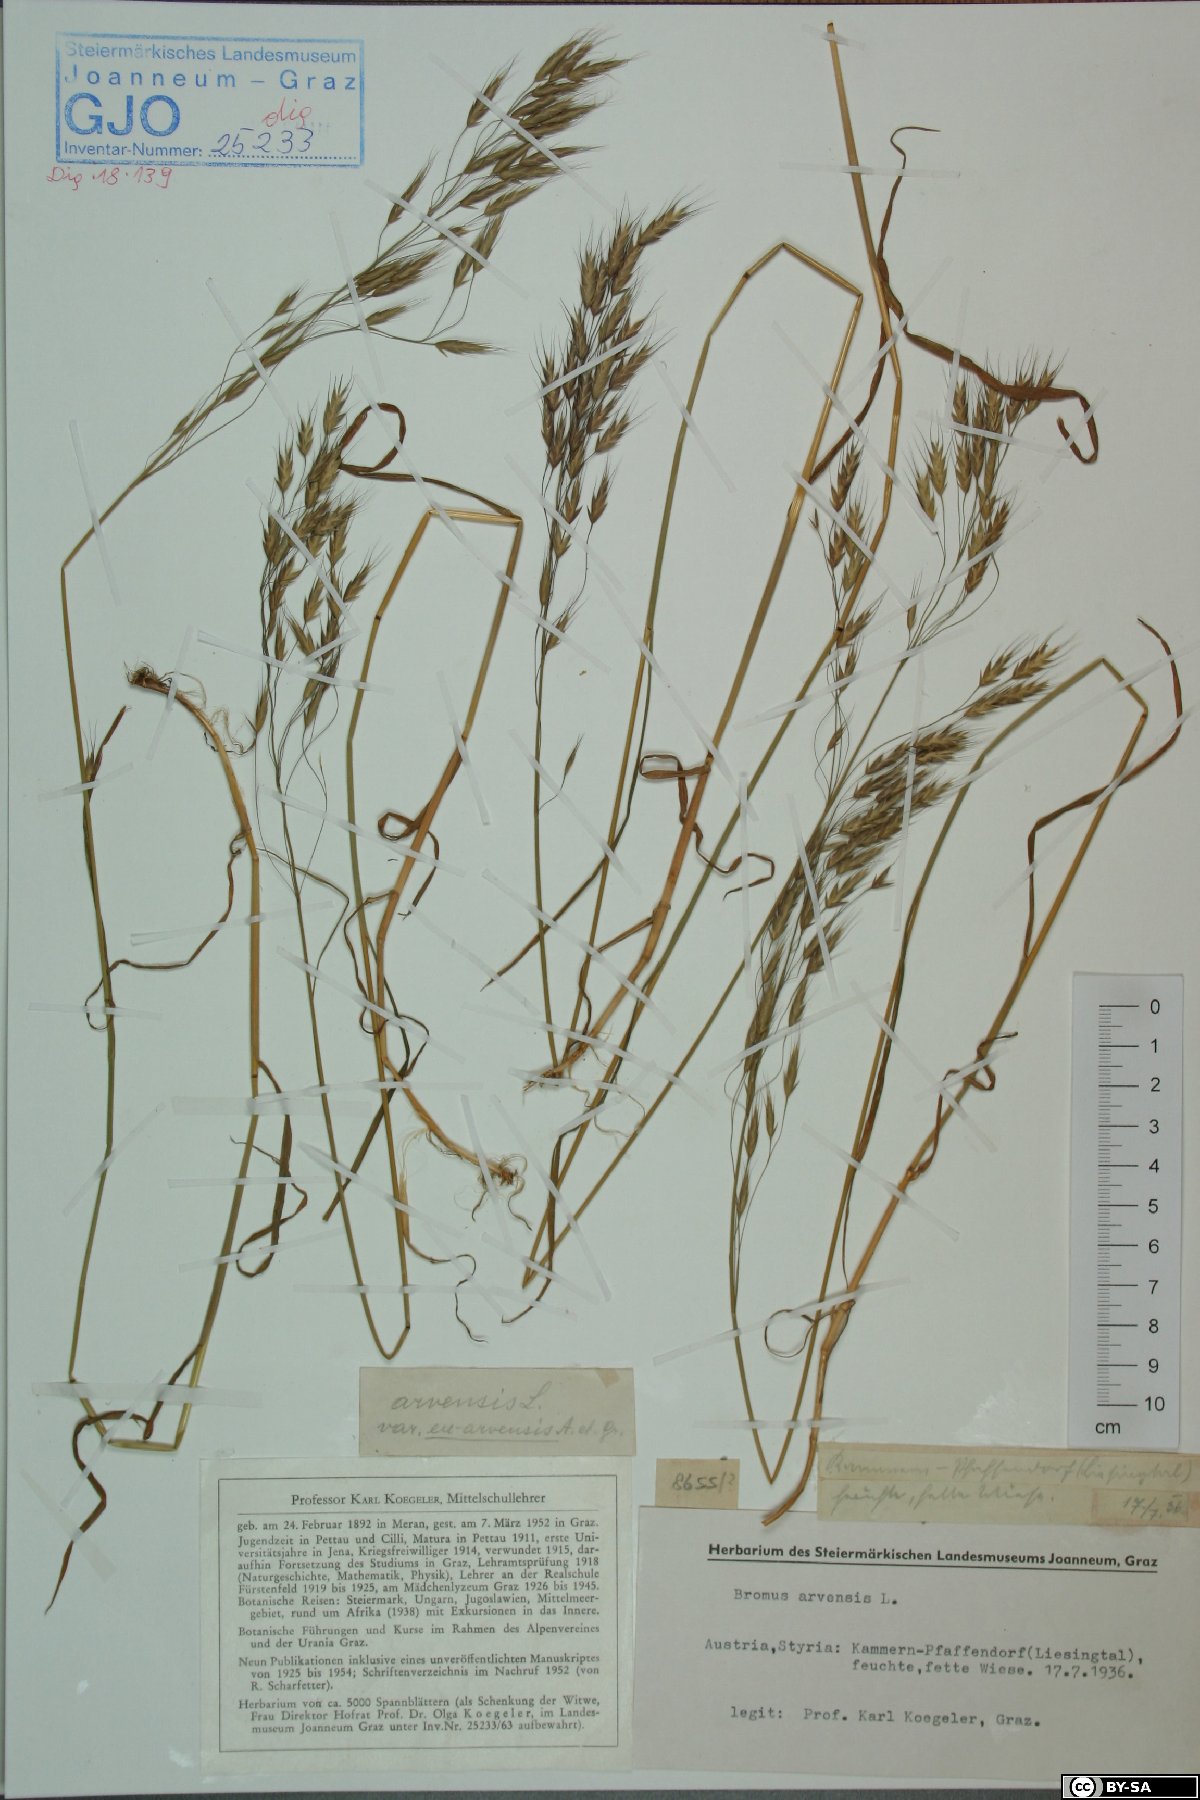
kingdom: Plantae
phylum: Tracheophyta
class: Liliopsida
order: Poales
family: Poaceae
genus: Bromus
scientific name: Bromus arvensis
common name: Field brome
